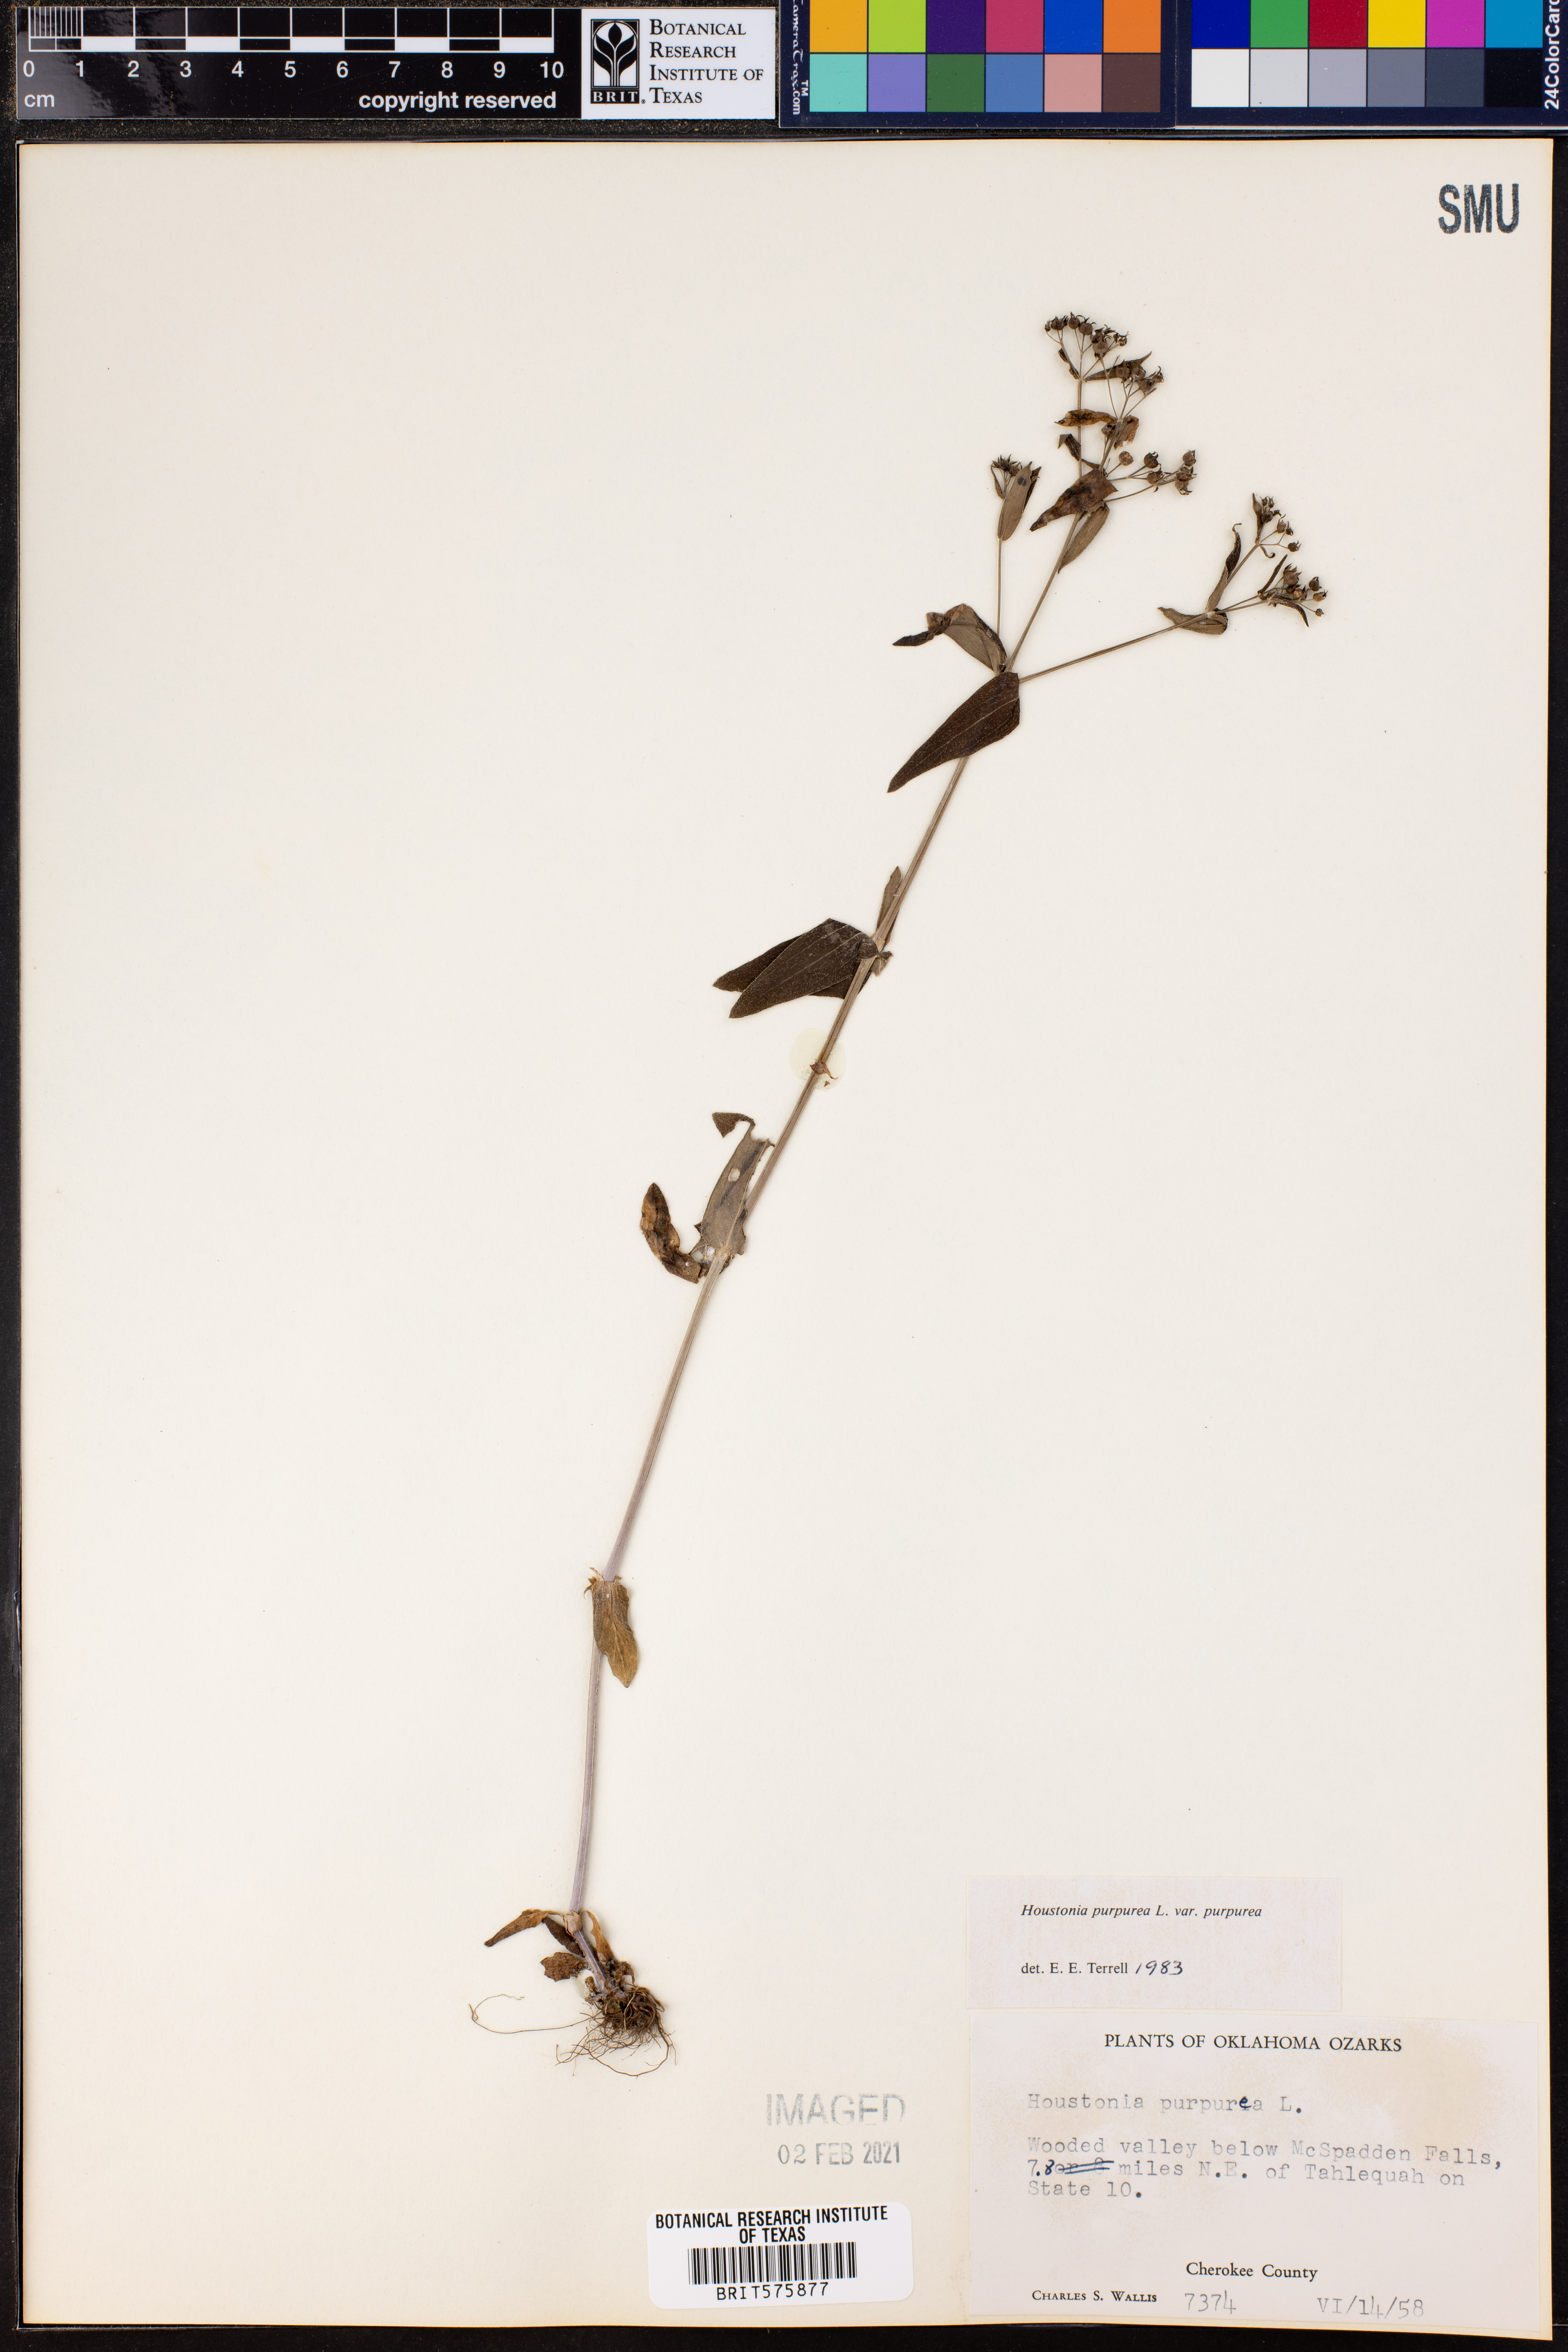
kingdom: Plantae
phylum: Tracheophyta
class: Magnoliopsida
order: Gentianales
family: Rubiaceae
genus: Houstonia
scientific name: Houstonia purpurea
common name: Summer bluet
